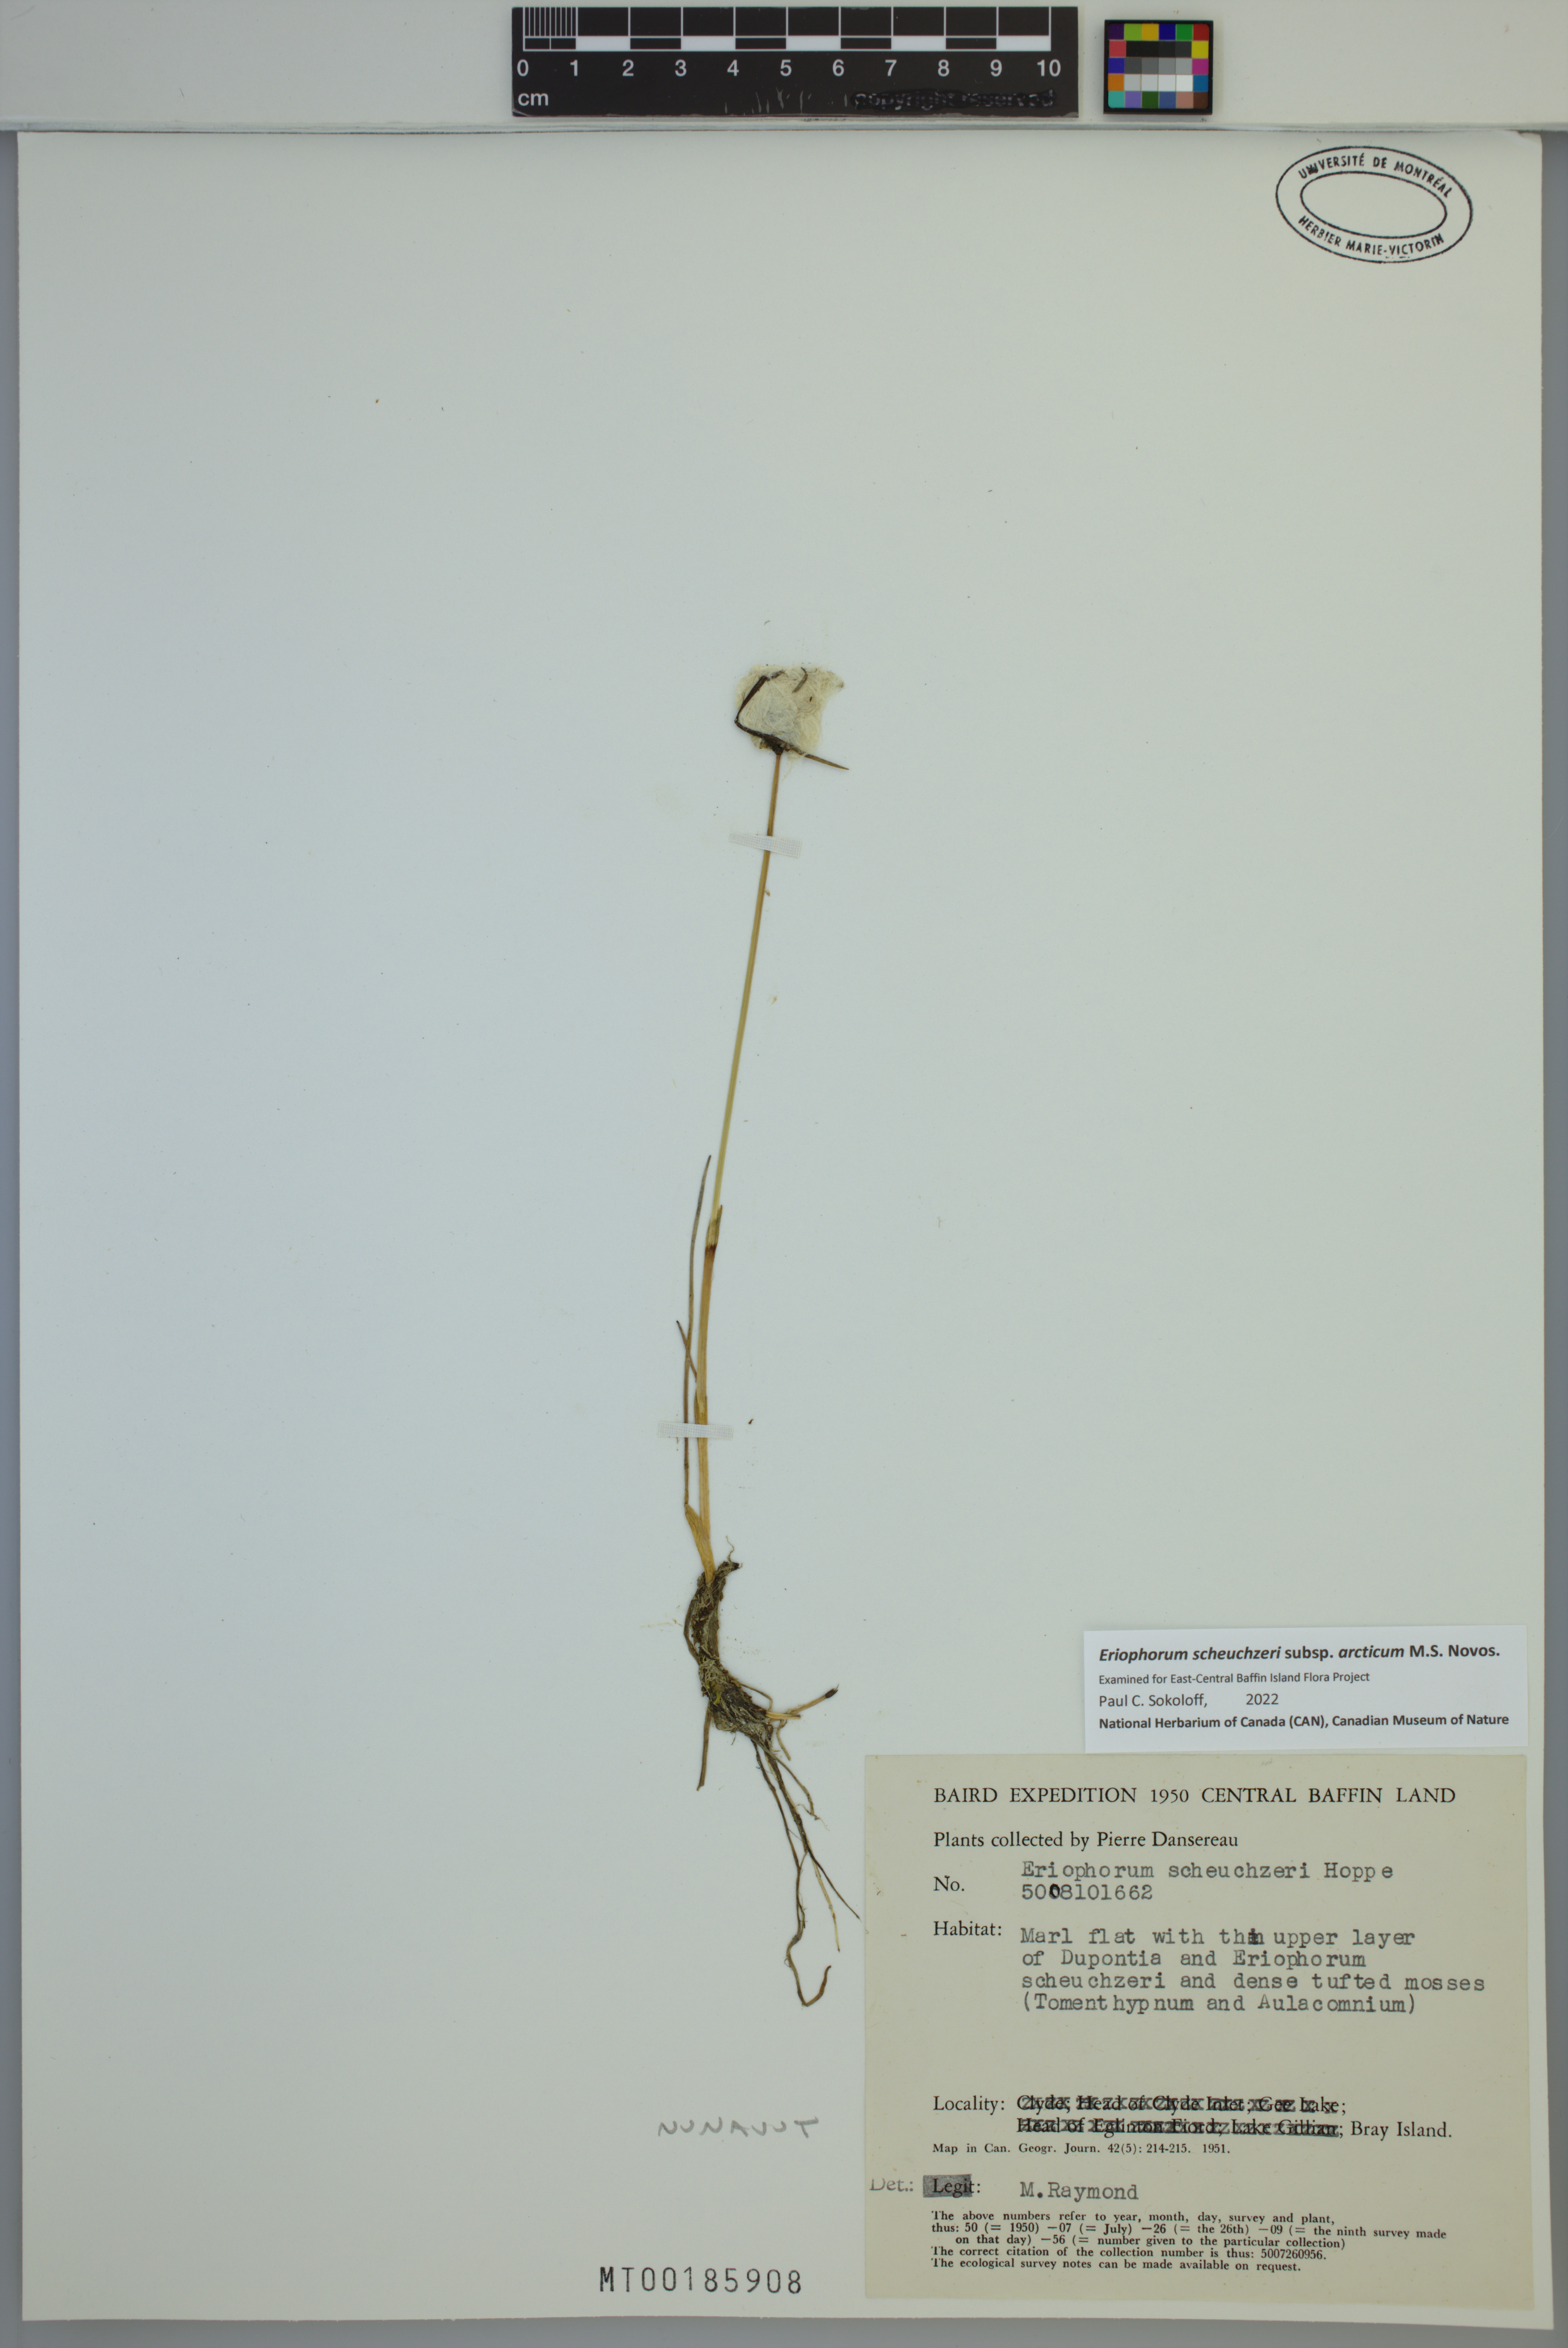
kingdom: Plantae
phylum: Tracheophyta
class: Liliopsida
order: Poales
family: Cyperaceae
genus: Eriophorum
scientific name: Eriophorum scheuchzeri
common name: Scheuchzer's cottongrass
